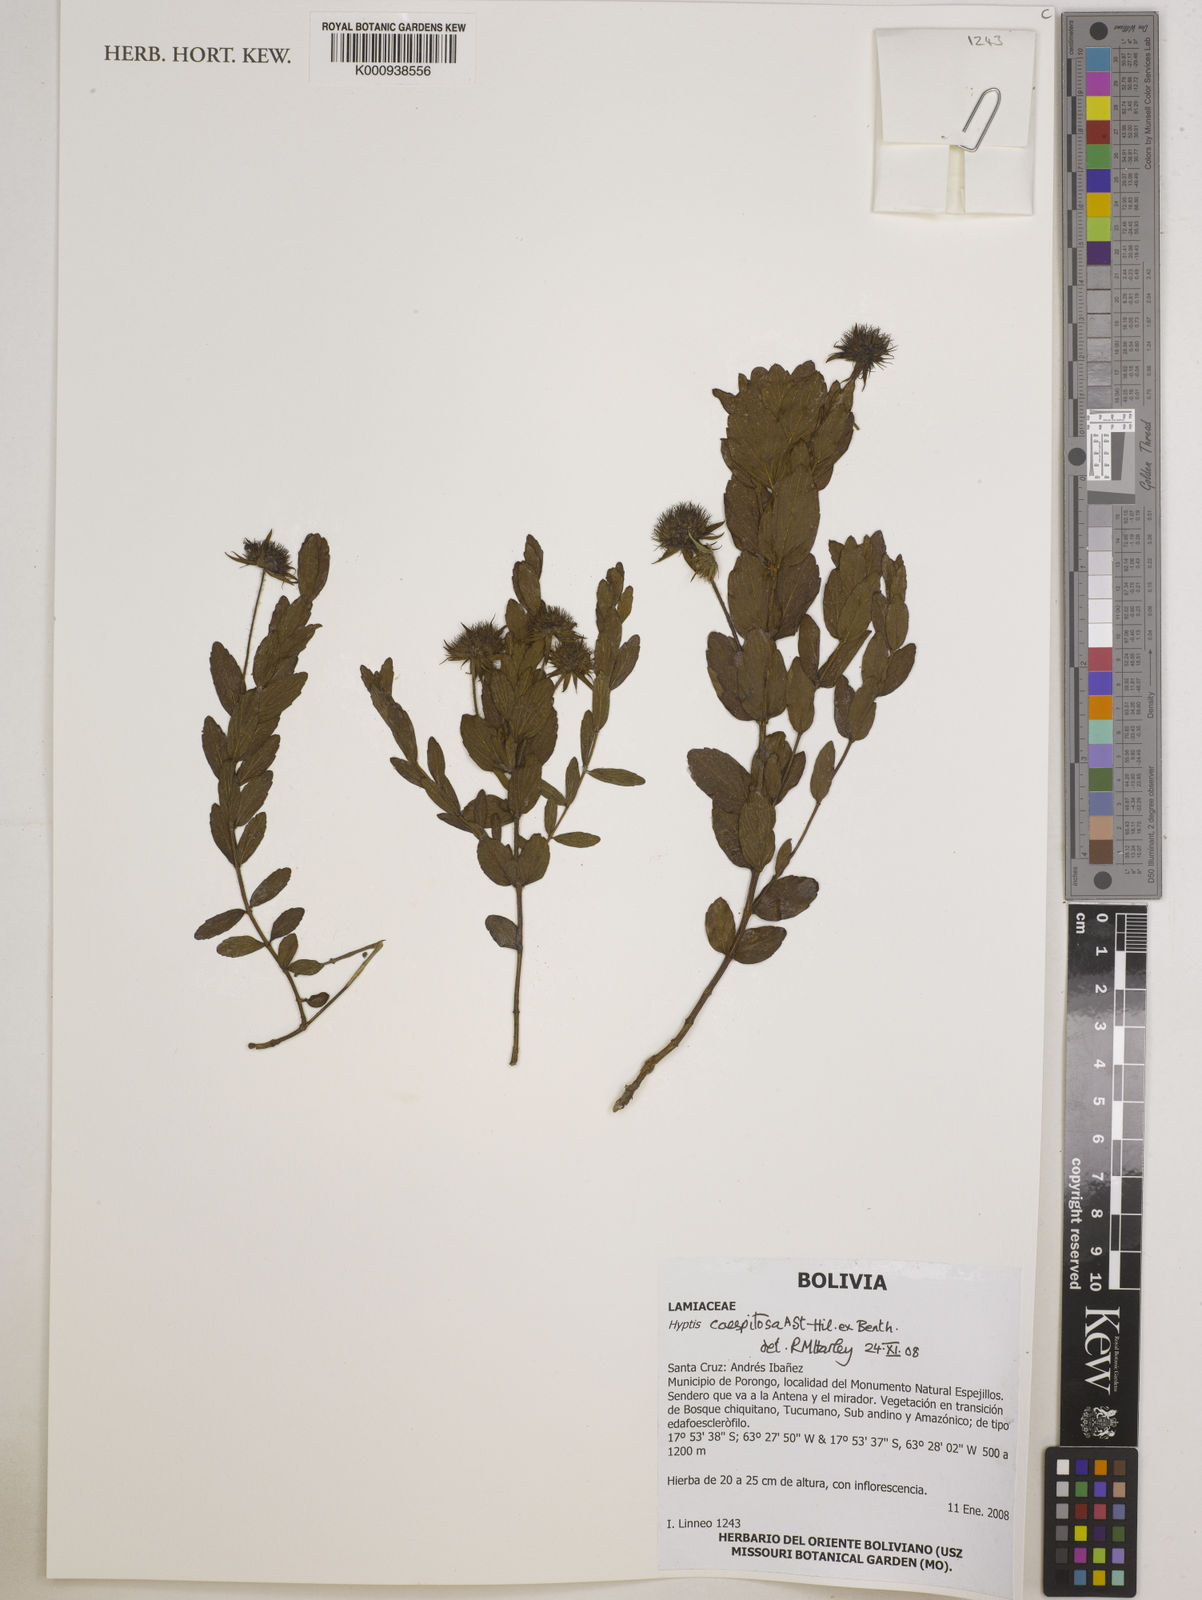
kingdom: Plantae
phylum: Tracheophyta
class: Magnoliopsida
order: Lamiales
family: Lamiaceae
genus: Hyptis
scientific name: Hyptis caespitosa
